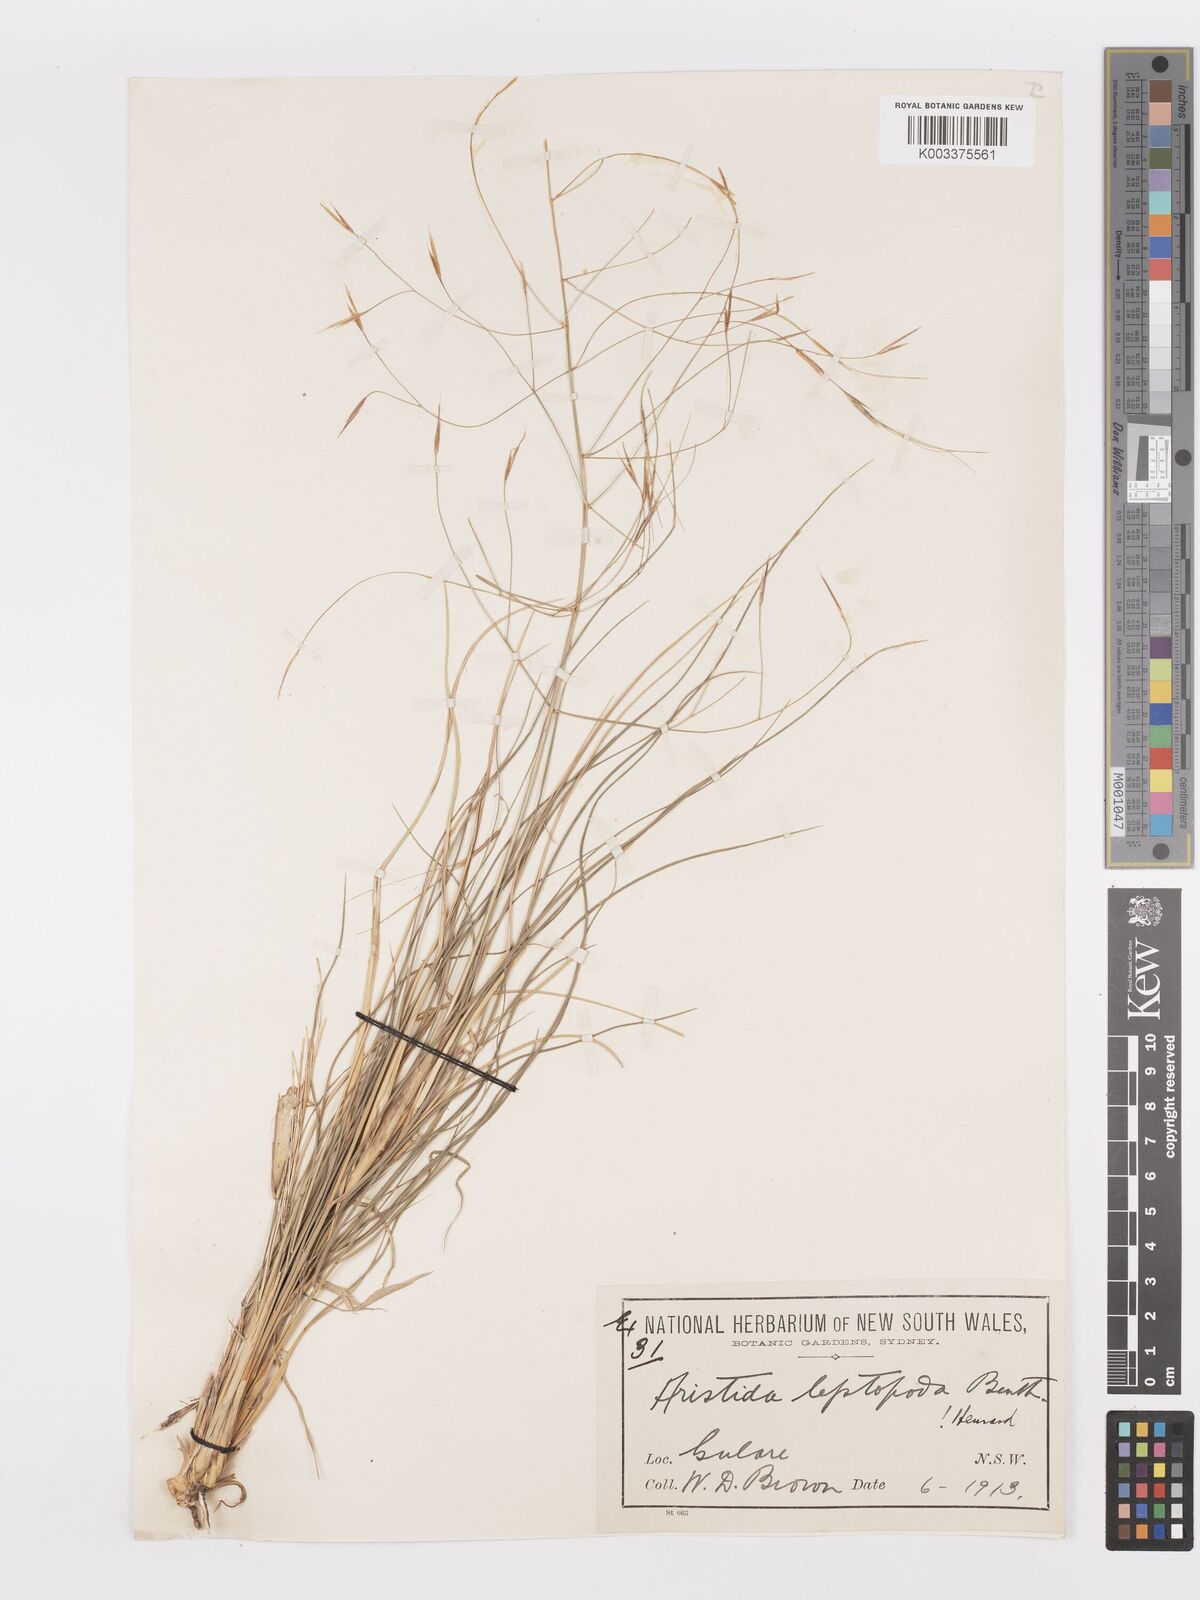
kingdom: Plantae
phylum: Tracheophyta
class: Liliopsida
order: Poales
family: Poaceae
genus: Aristida
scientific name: Aristida leptopoda
